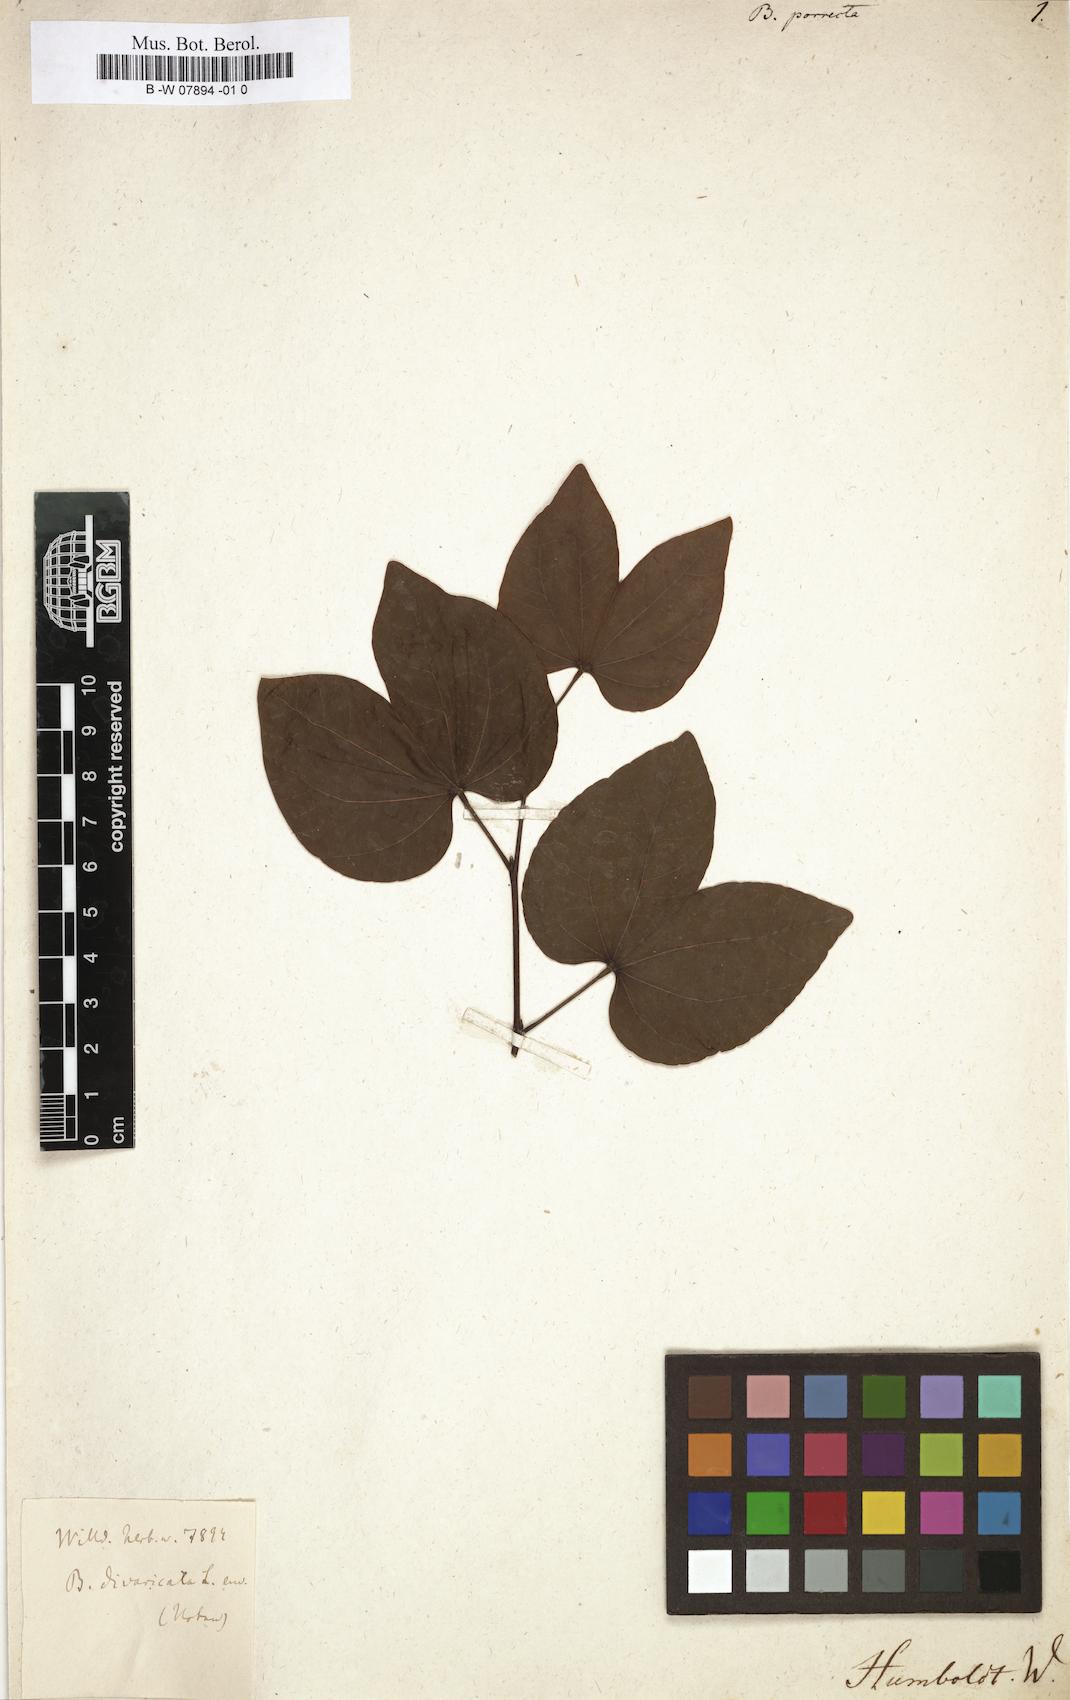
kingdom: Plantae
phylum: Tracheophyta
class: Magnoliopsida
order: Fabales
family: Fabaceae
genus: Bauhinia
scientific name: Bauhinia divaricata
